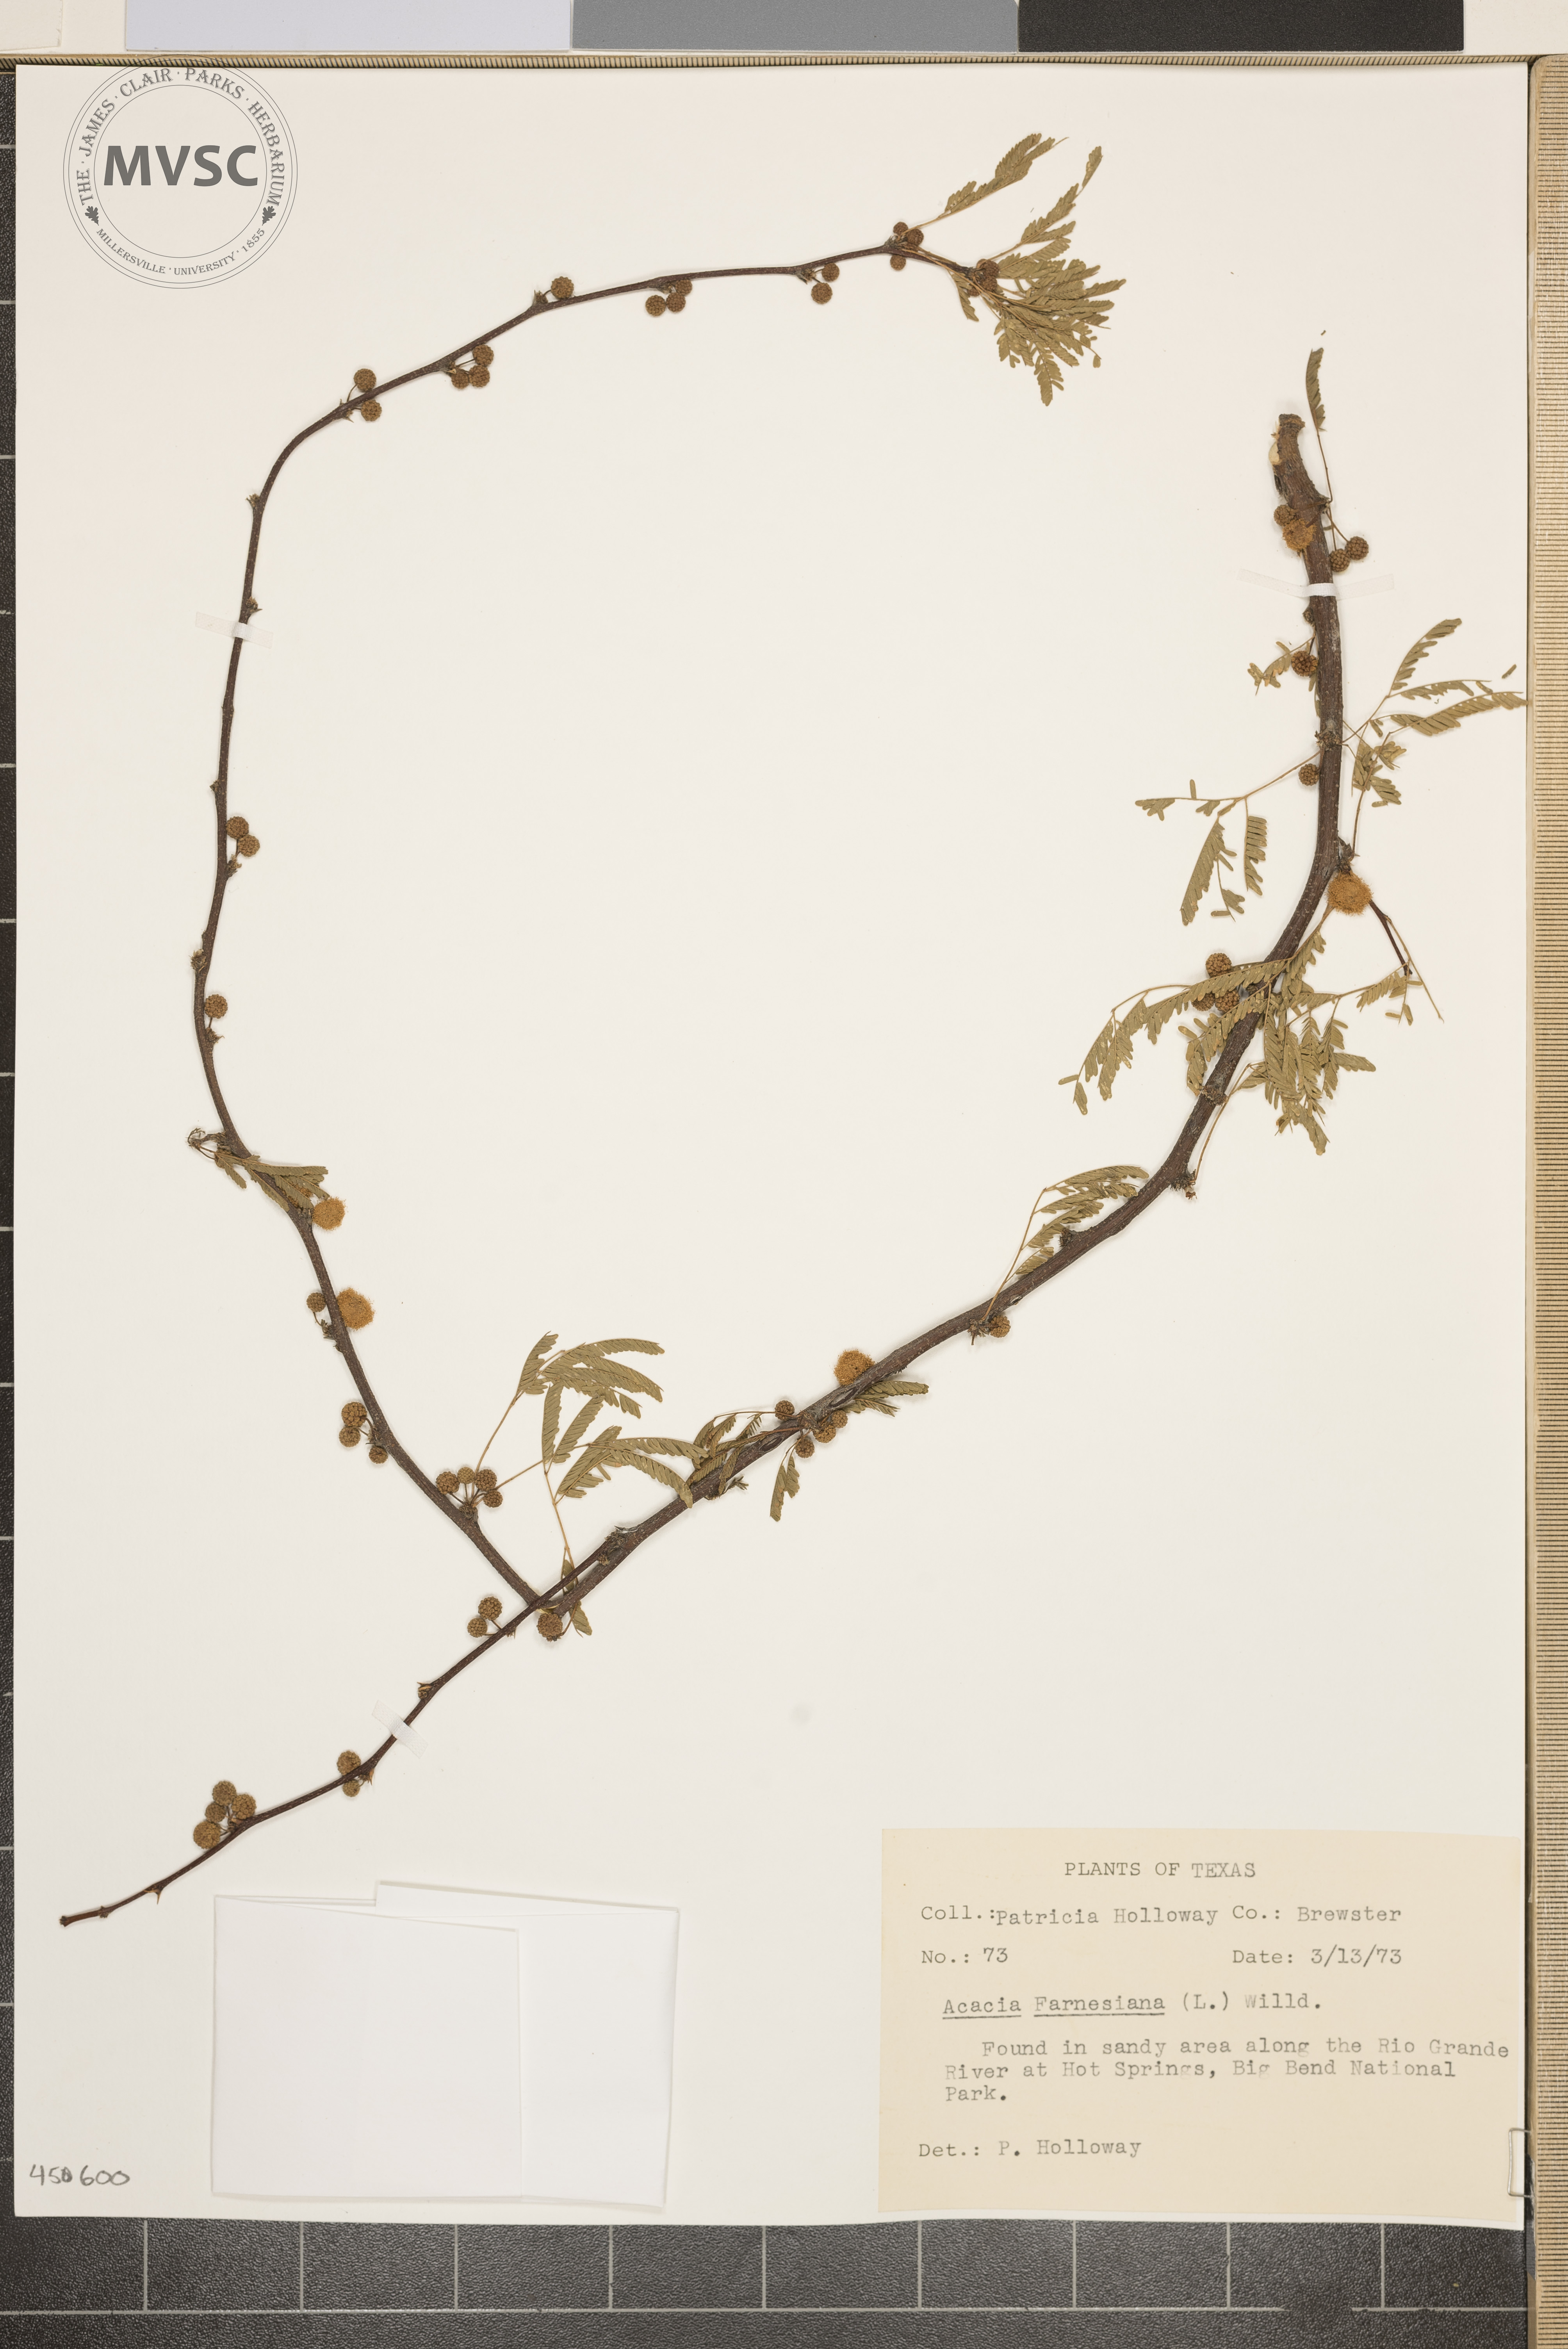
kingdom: Plantae
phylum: Tracheophyta
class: Magnoliopsida
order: Fabales
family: Fabaceae
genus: Acacia
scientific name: Acacia
